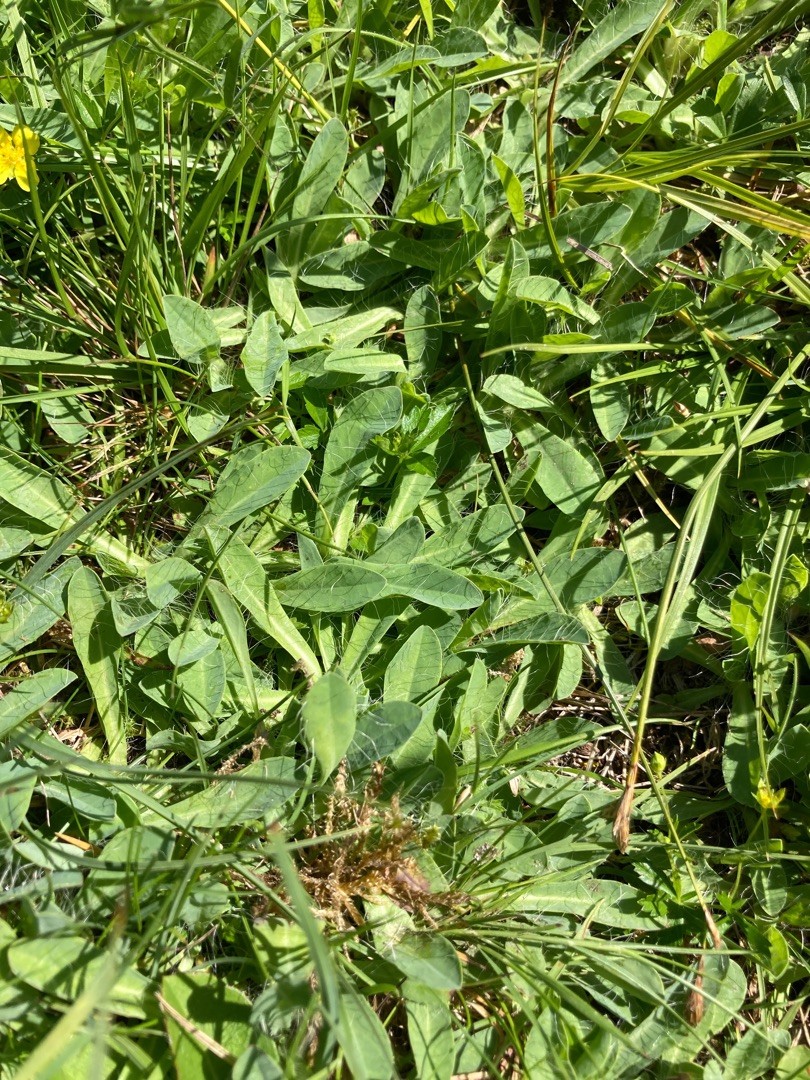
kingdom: Plantae
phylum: Tracheophyta
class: Magnoliopsida
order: Asterales
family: Asteraceae
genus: Pilosella
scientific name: Pilosella lactucella
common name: Lancetbladet høgeurt
